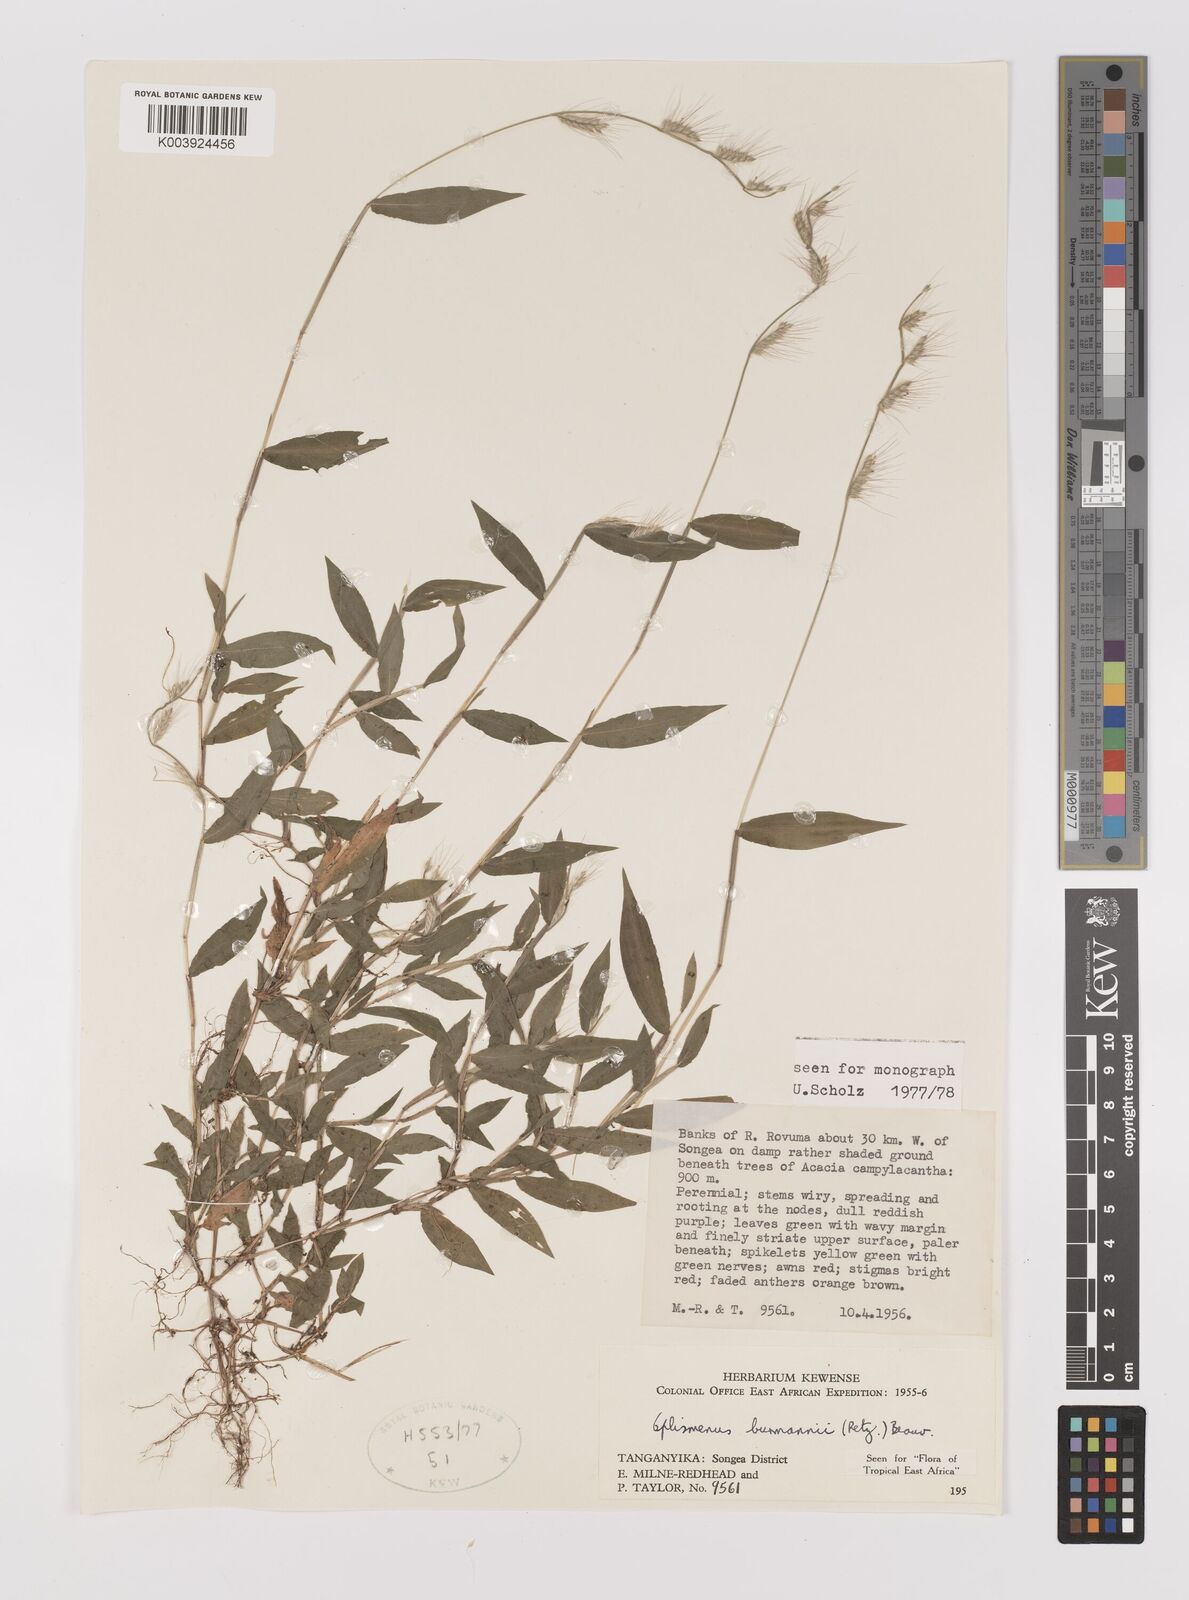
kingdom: Plantae
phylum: Tracheophyta
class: Liliopsida
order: Poales
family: Poaceae
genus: Oplismenus
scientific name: Oplismenus burmanni
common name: Burmann's basketgrass
